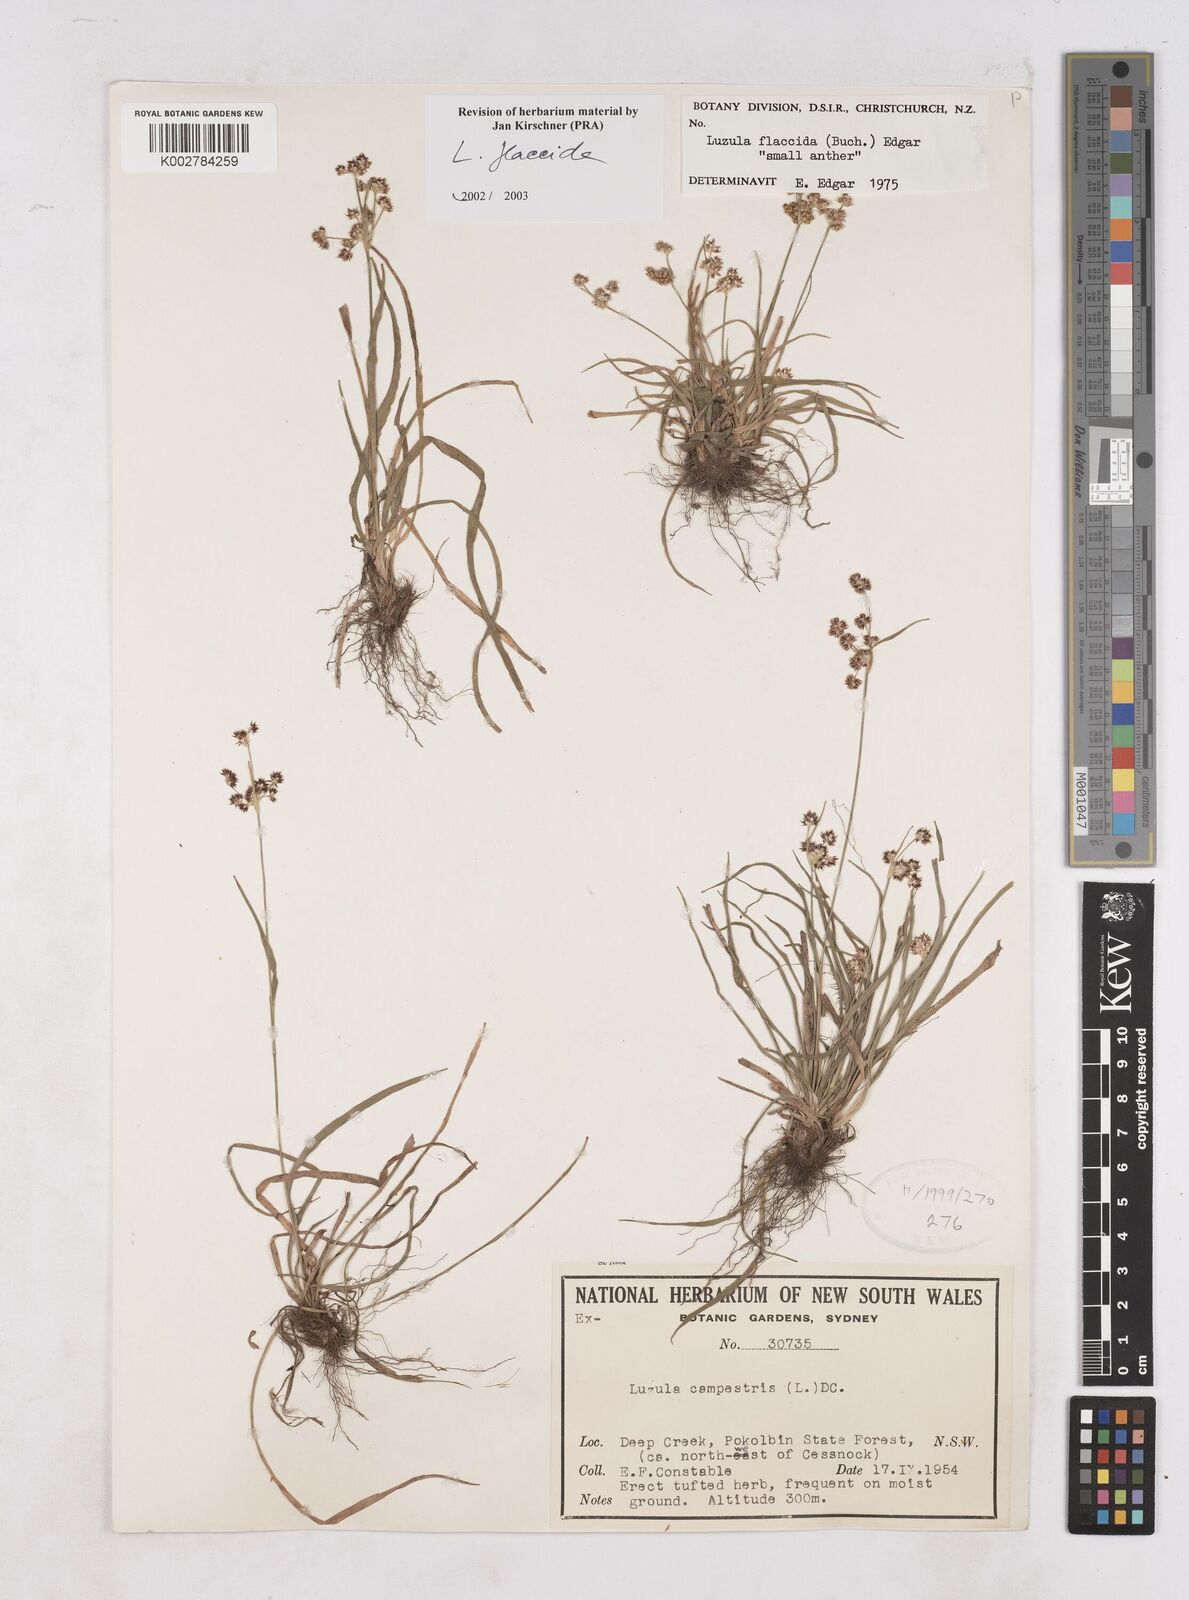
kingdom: Plantae
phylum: Tracheophyta
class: Liliopsida
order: Poales
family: Juncaceae
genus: Luzula
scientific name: Luzula flaccida
